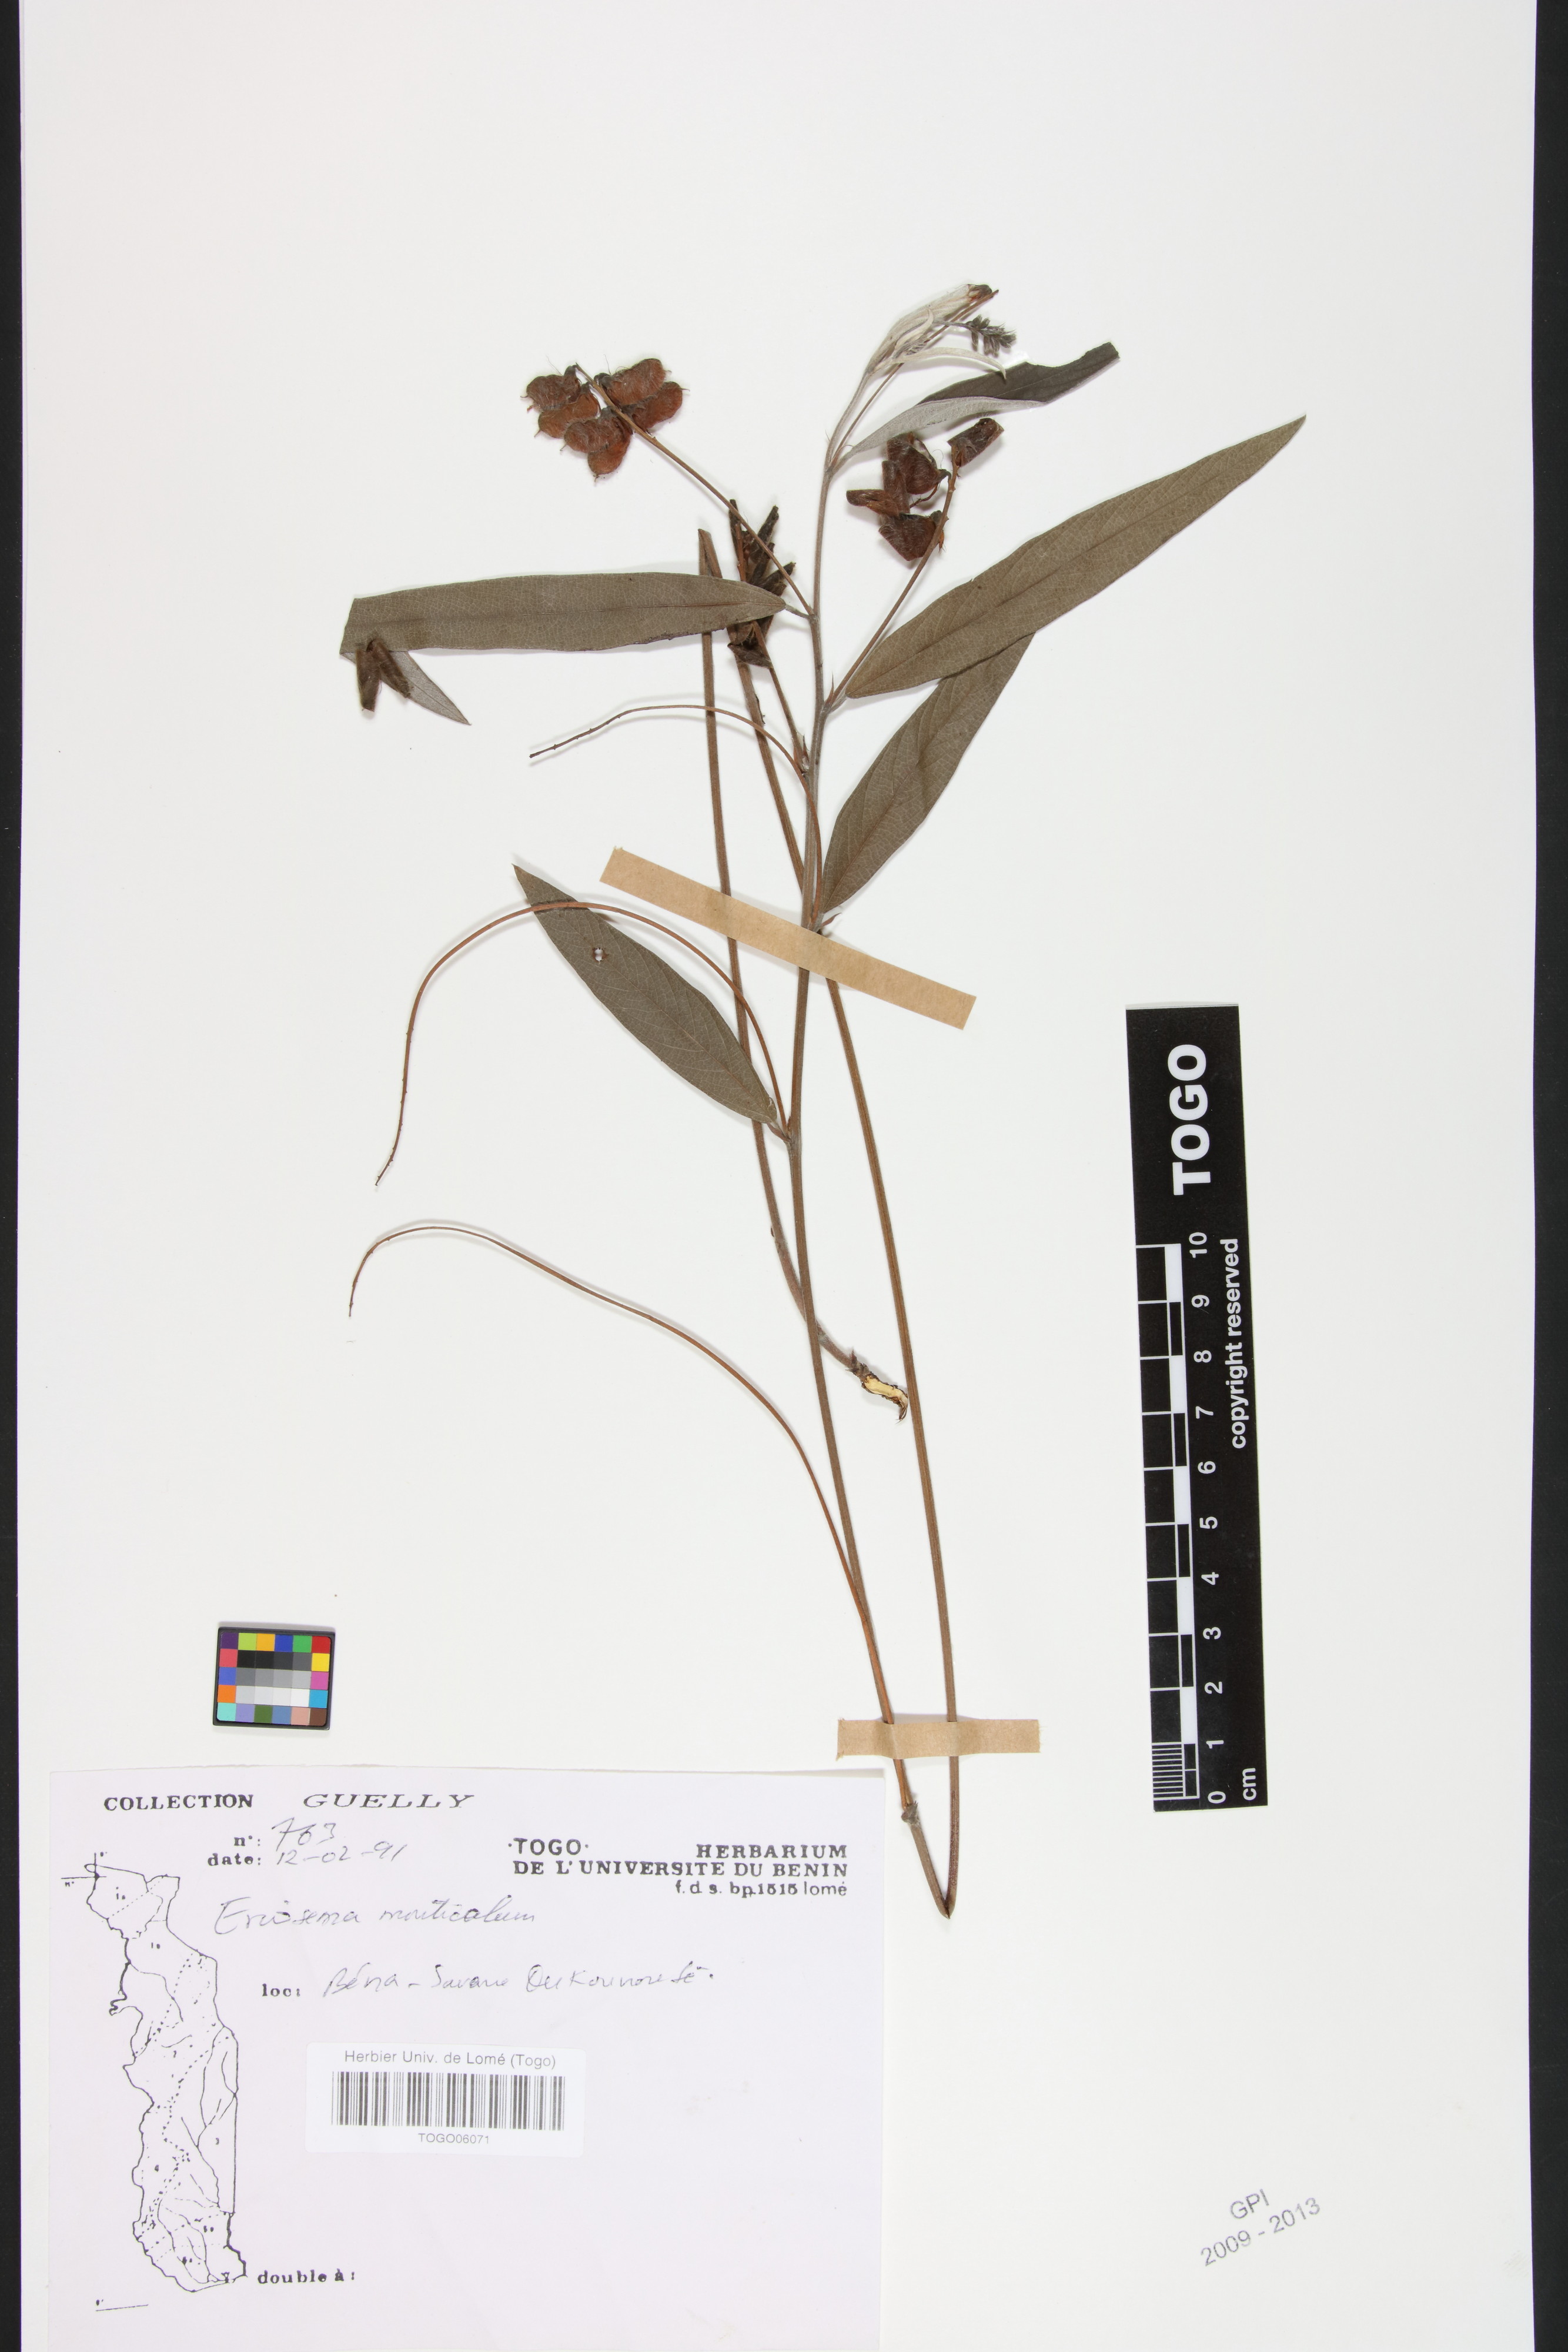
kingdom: Plantae
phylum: Tracheophyta
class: Magnoliopsida
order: Fabales
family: Fabaceae
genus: Eriosema
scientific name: Eriosema monticola
